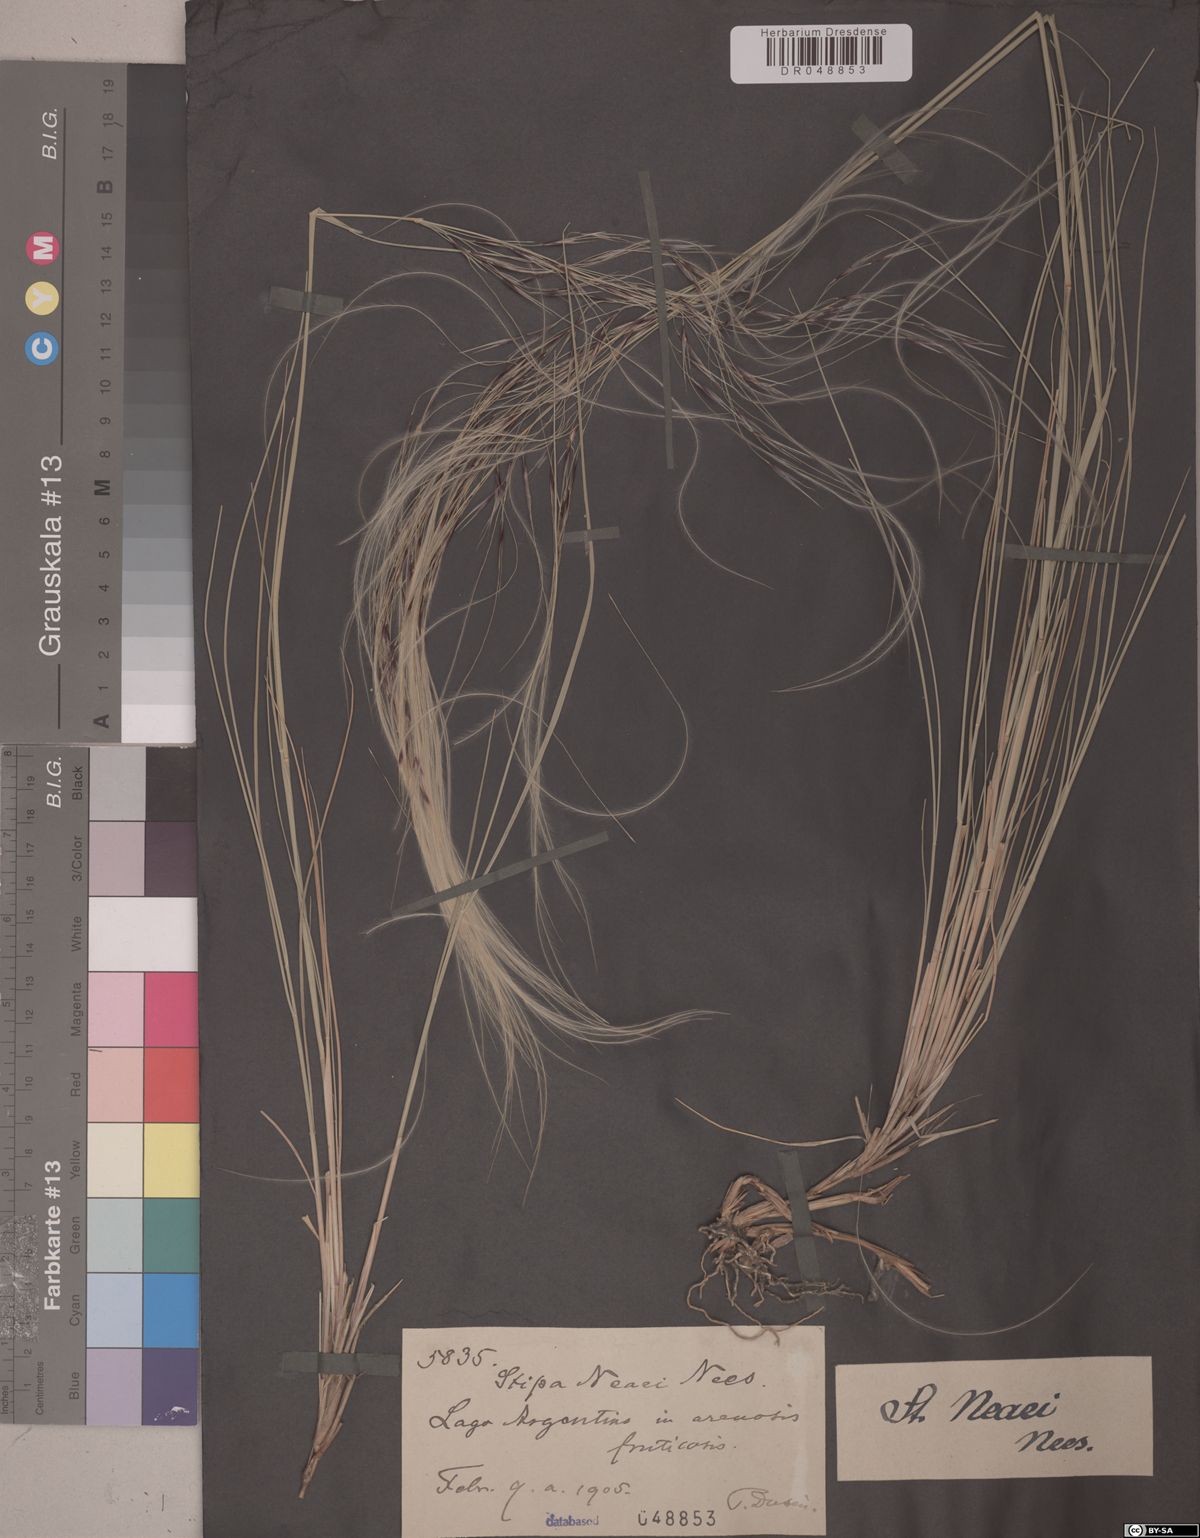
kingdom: Plantae
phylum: Tracheophyta
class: Liliopsida
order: Poales
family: Poaceae
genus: Stipa
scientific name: Stipa neaei
